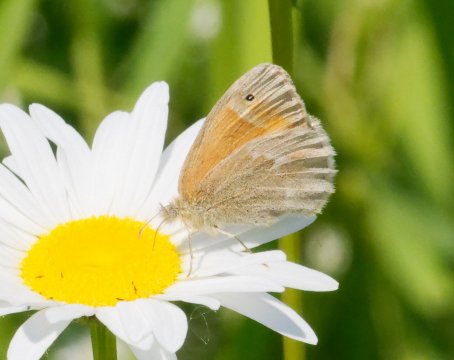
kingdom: Animalia
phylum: Arthropoda
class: Insecta
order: Lepidoptera
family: Nymphalidae
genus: Coenonympha
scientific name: Coenonympha tullia
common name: Large Heath
